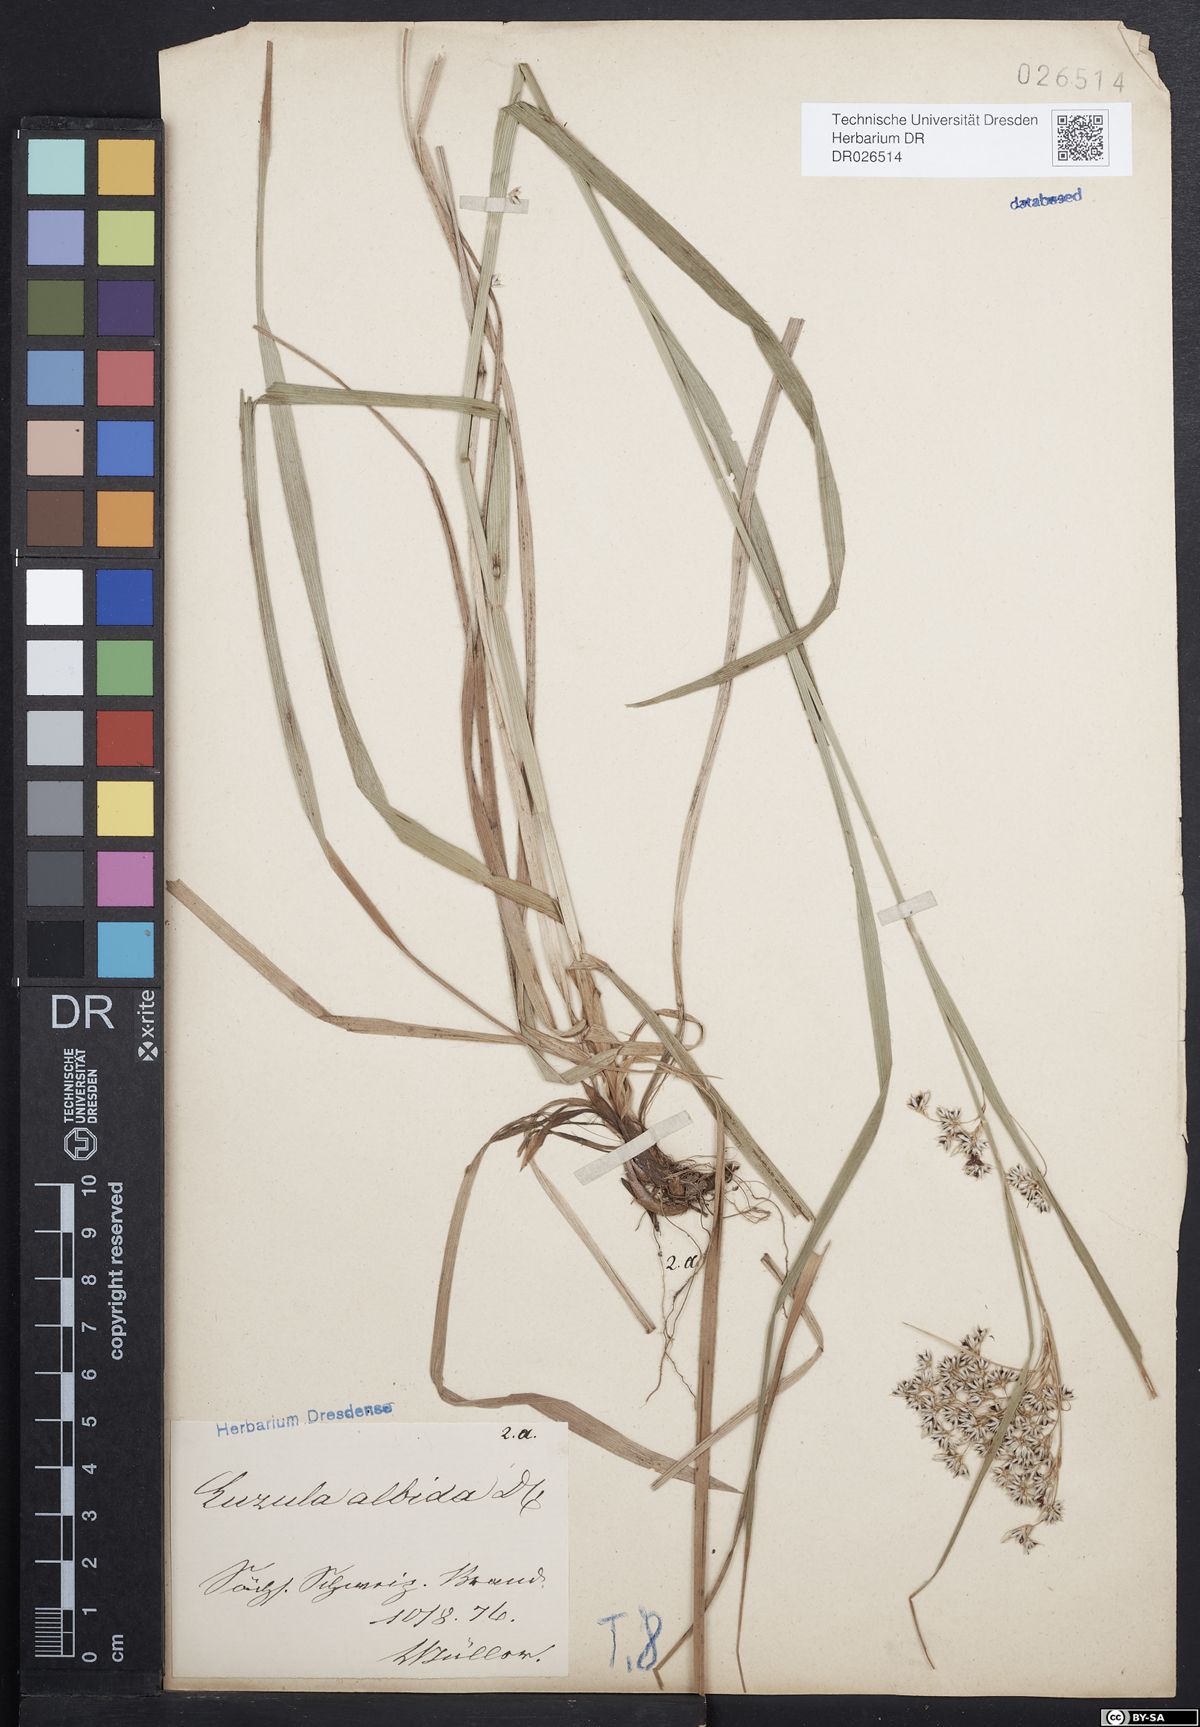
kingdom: Plantae
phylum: Tracheophyta
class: Liliopsida
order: Poales
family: Juncaceae
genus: Luzula
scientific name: Luzula luzuloides
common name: White wood-rush
